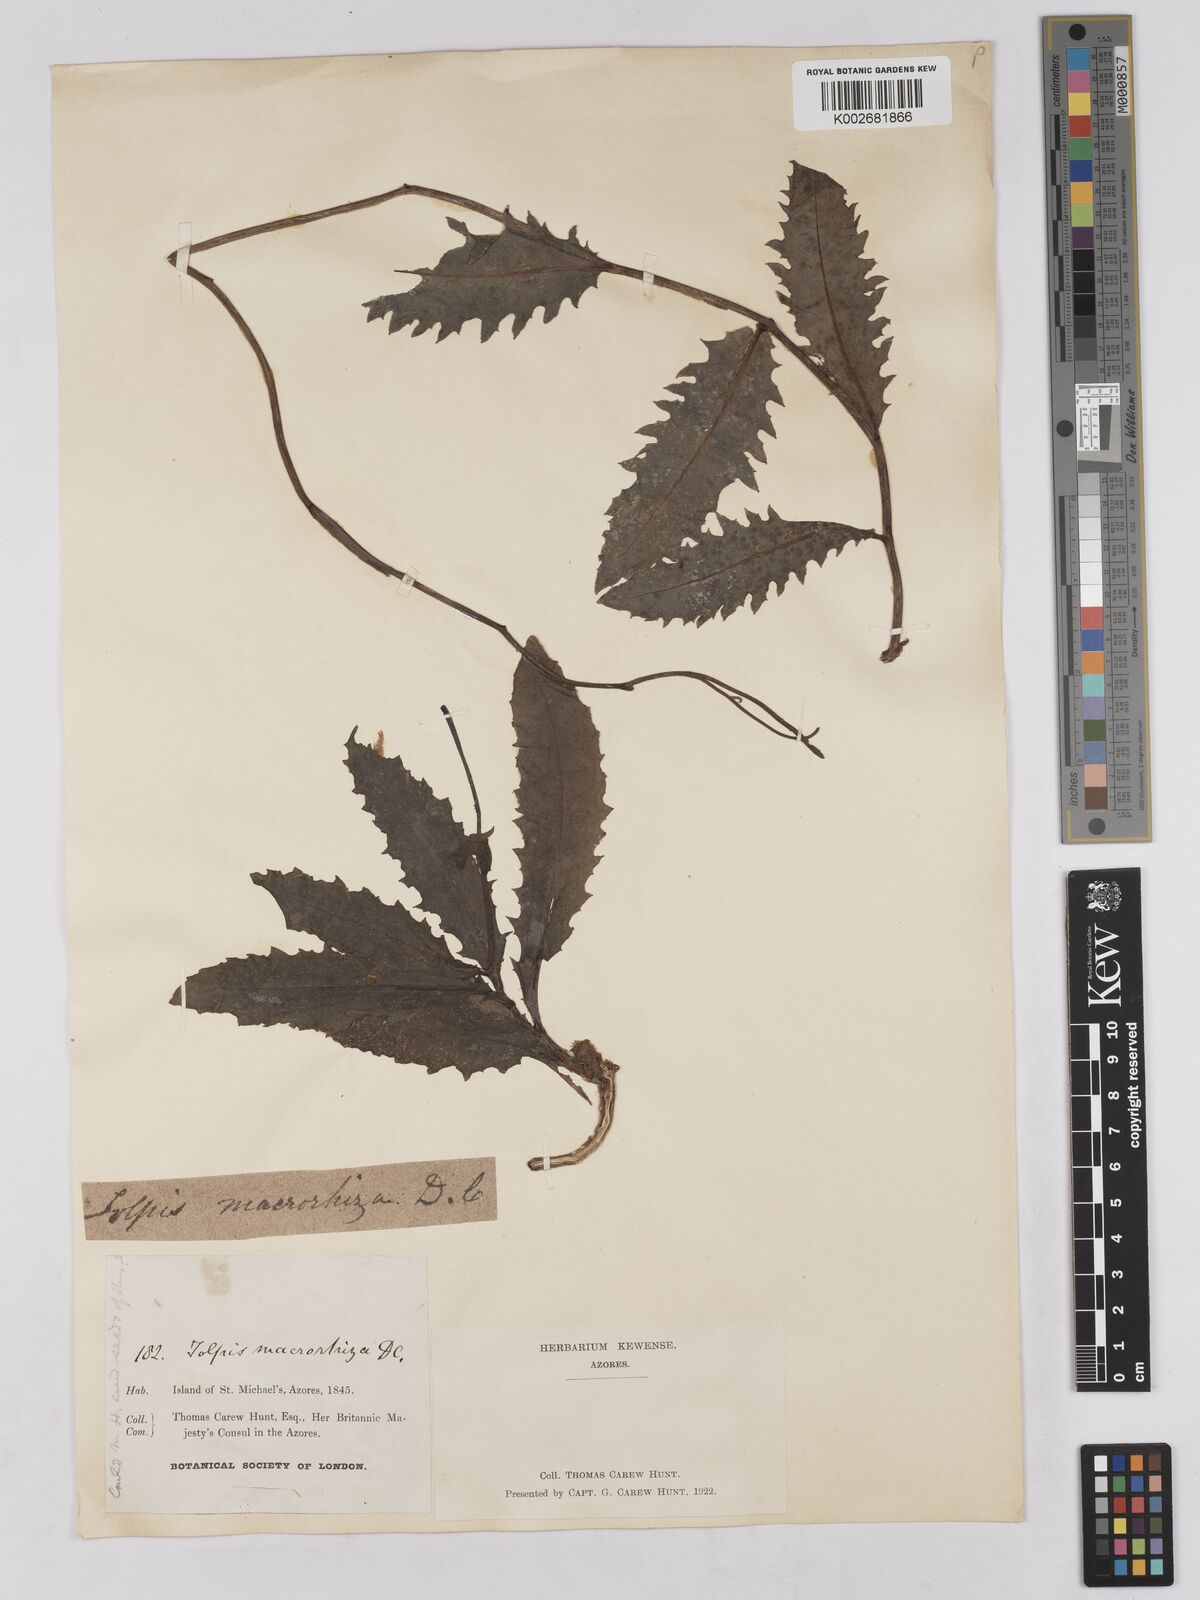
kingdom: Plantae
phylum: Tracheophyta
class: Magnoliopsida
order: Asterales
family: Asteraceae
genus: Tolpis
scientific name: Tolpis nobilis
